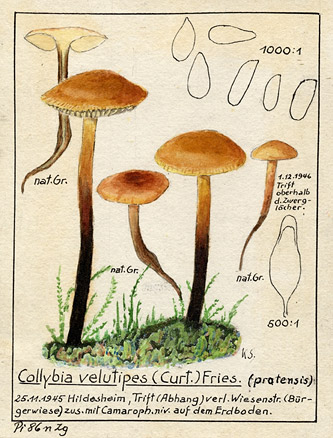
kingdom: Fungi
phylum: Basidiomycota
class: Agaricomycetes
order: Agaricales
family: Physalacriaceae
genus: Flammulina
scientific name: Flammulina ononidis
